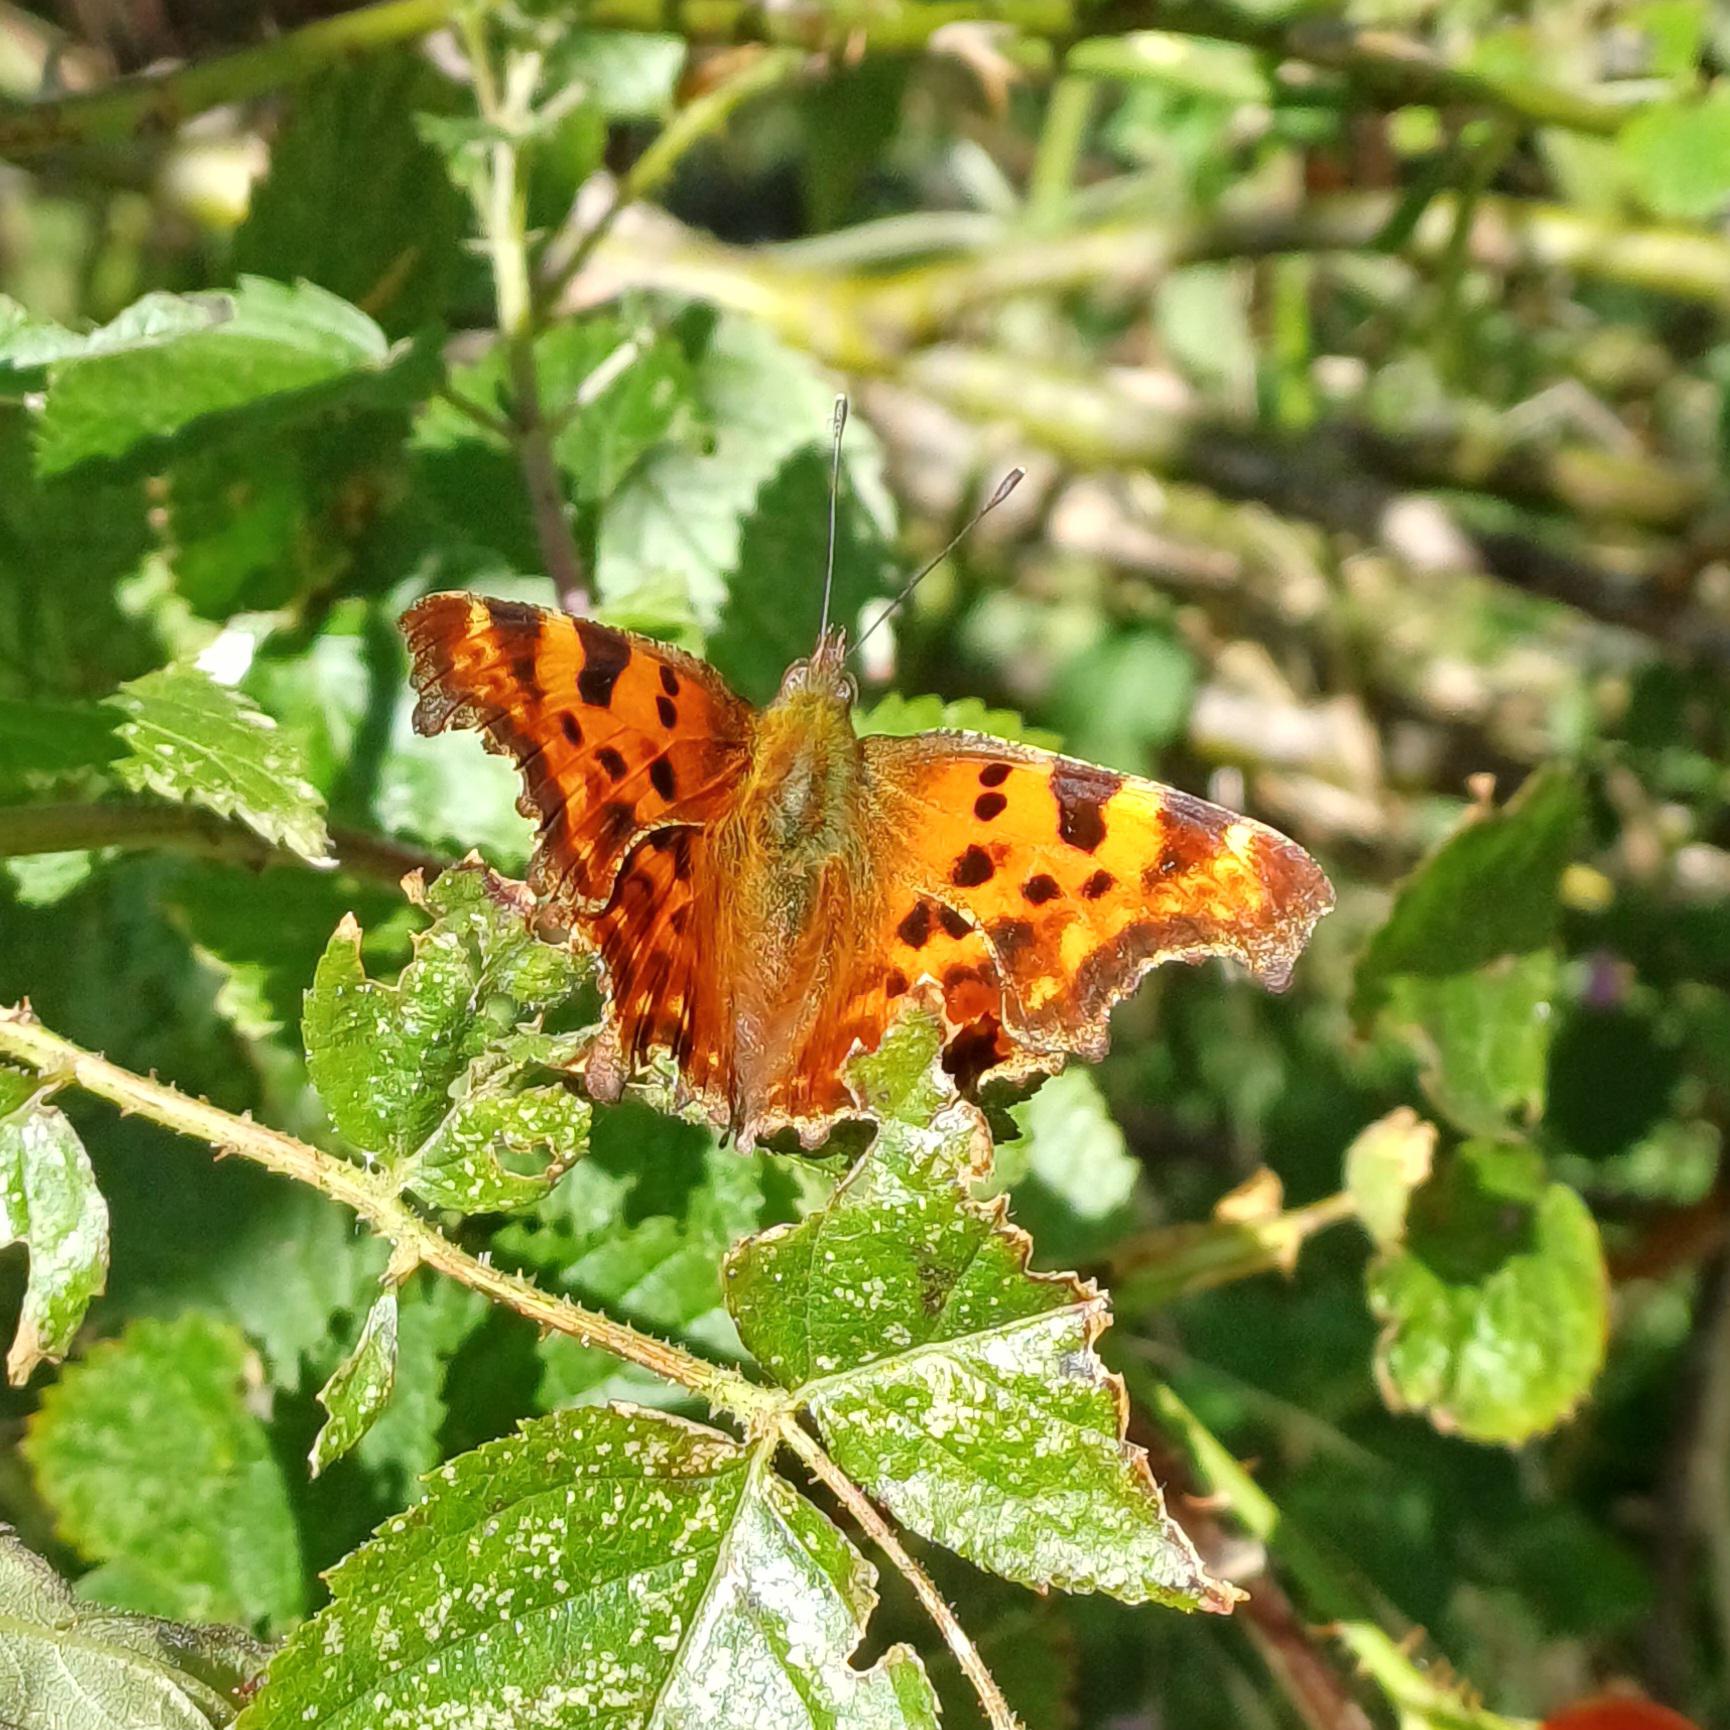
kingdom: Animalia
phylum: Arthropoda
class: Insecta
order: Lepidoptera
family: Nymphalidae
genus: Polygonia
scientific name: Polygonia c-album
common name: Det hvide C
